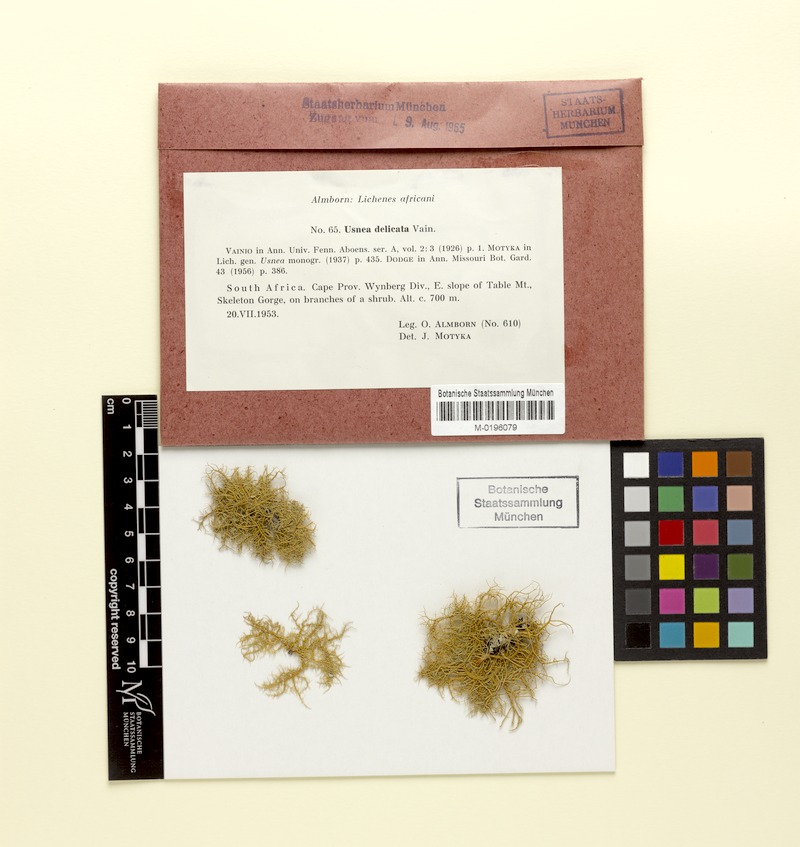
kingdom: Fungi
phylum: Ascomycota
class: Lecanoromycetes
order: Lecanorales
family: Parmeliaceae
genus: Usnea
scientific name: Usnea delicata
